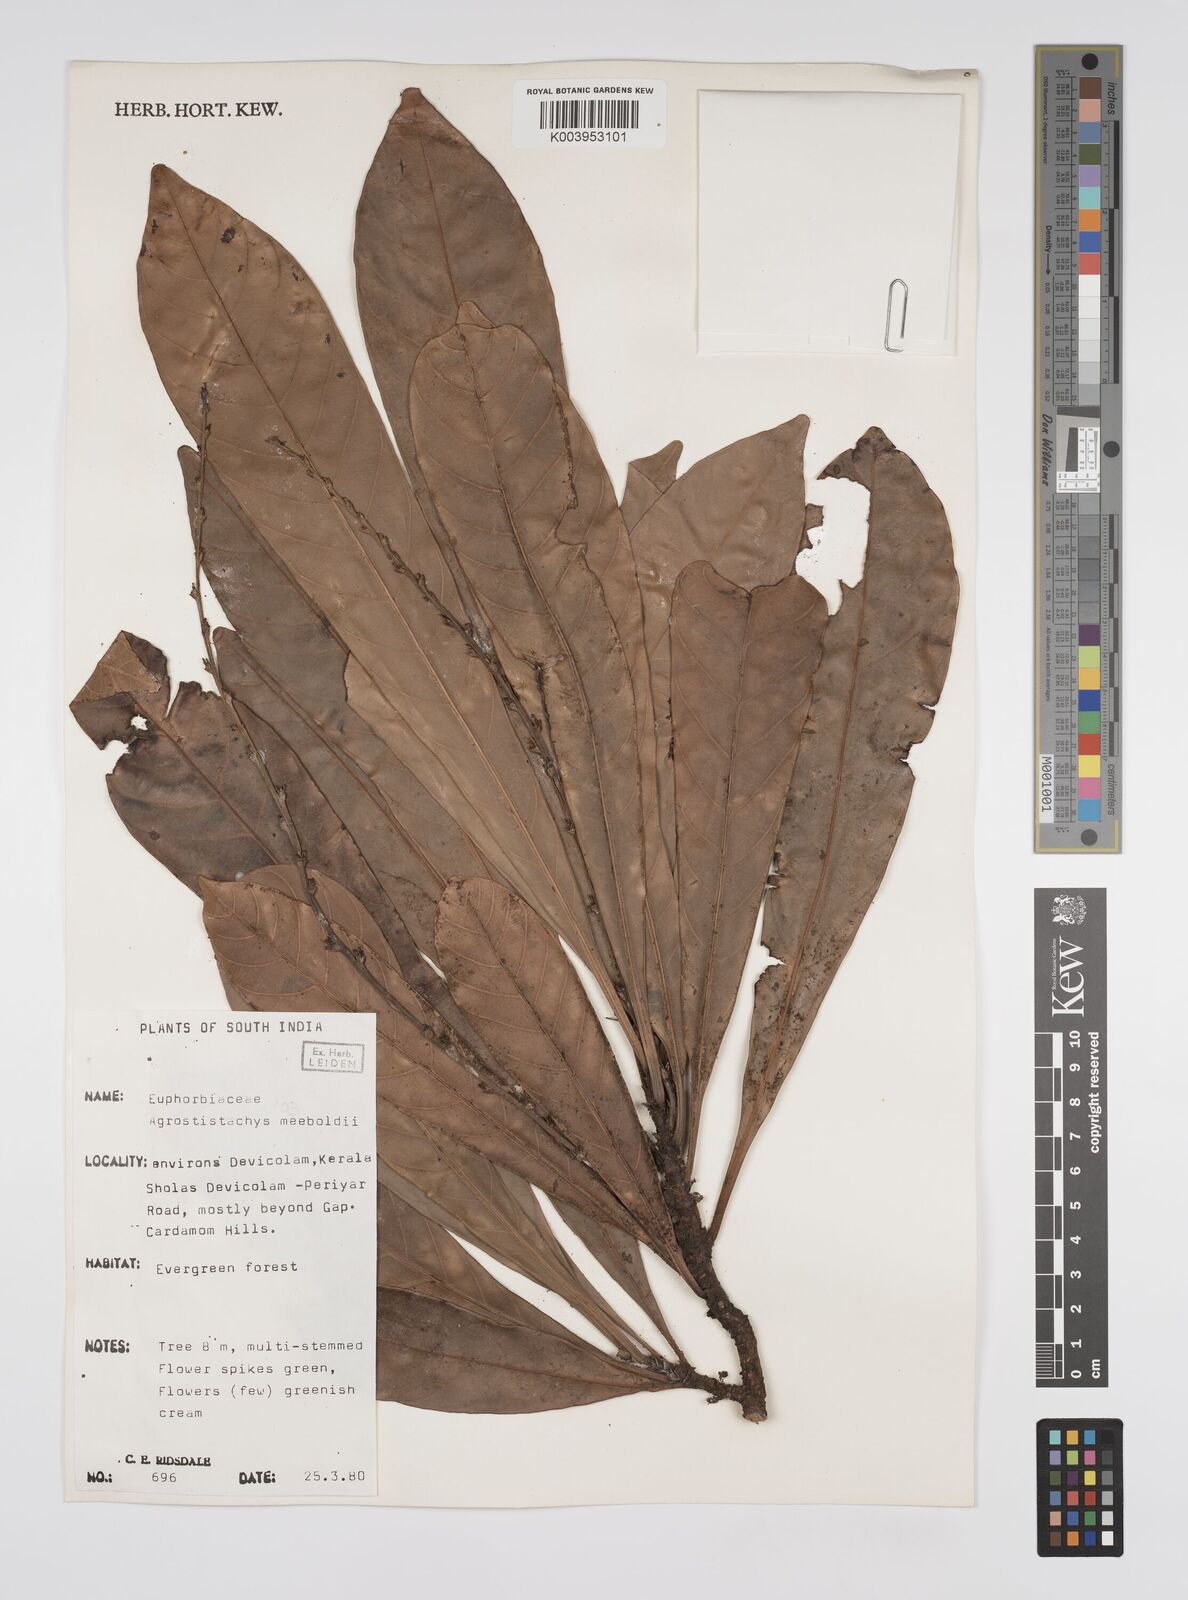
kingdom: Plantae
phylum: Tracheophyta
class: Magnoliopsida
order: Malpighiales
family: Euphorbiaceae
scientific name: Euphorbiaceae
